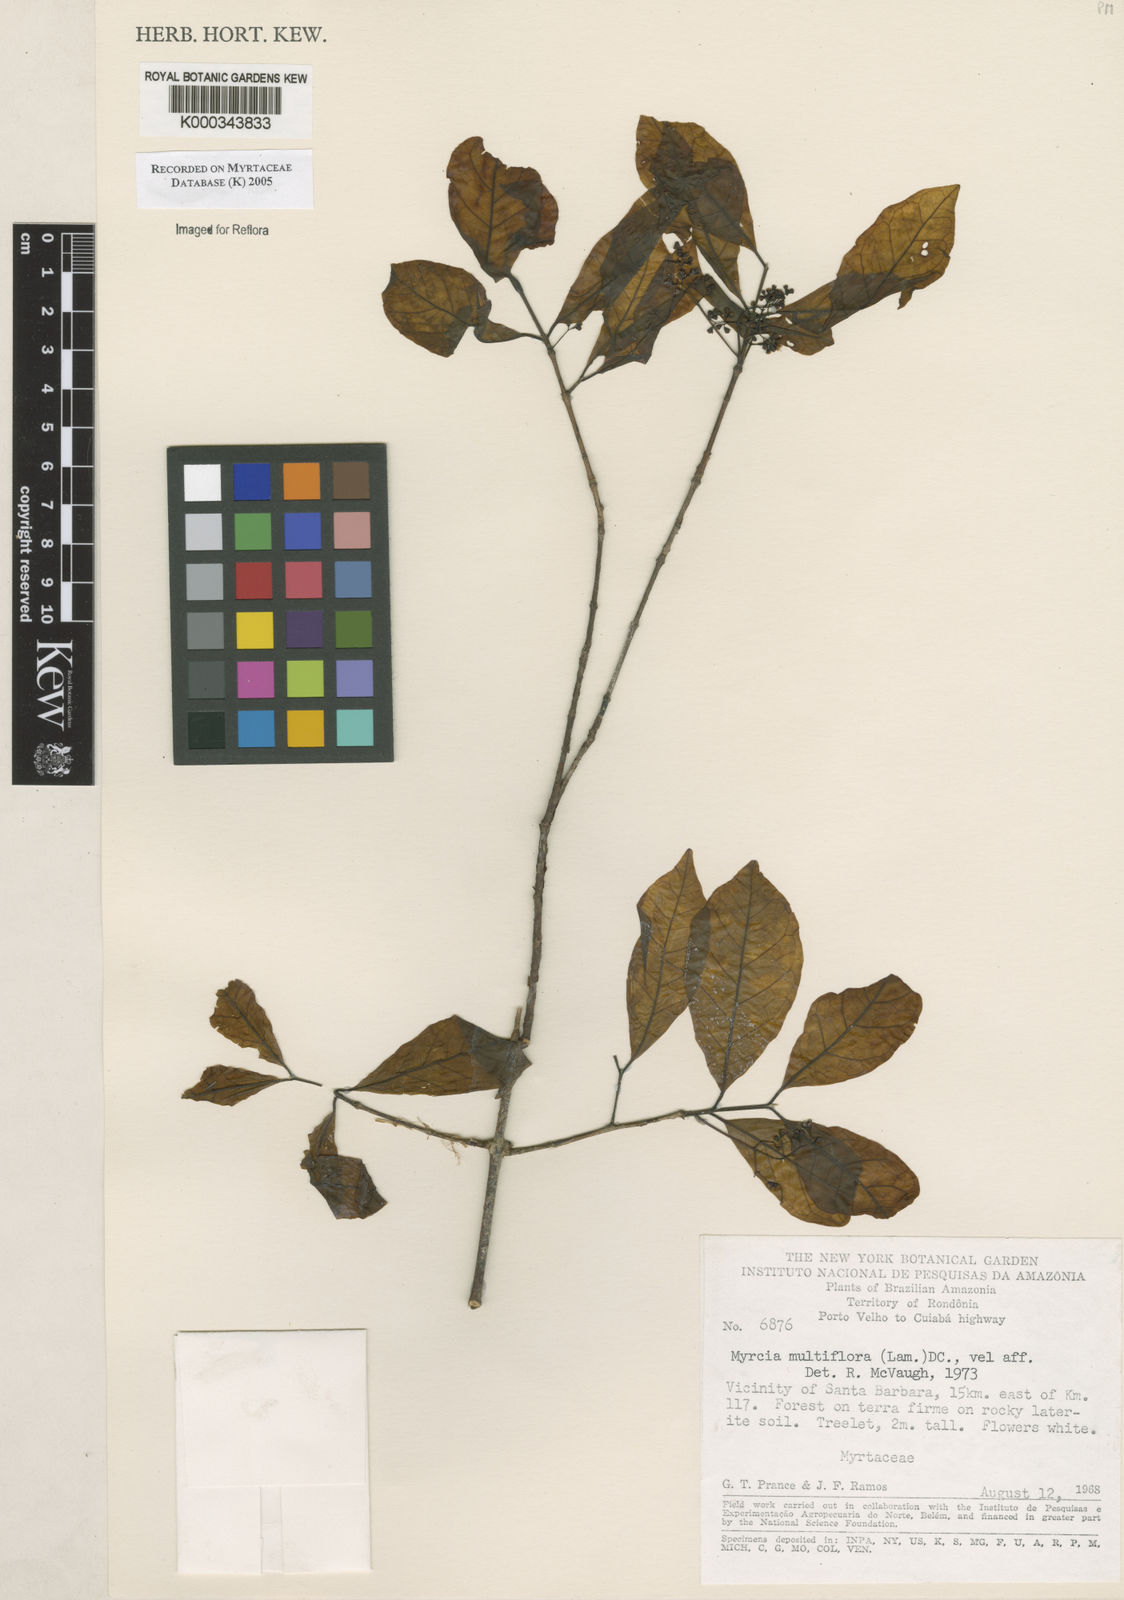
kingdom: Plantae
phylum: Tracheophyta
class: Magnoliopsida
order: Myrtales
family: Myrtaceae
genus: Myrcia
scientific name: Myrcia multiflora
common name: Pedra hume
